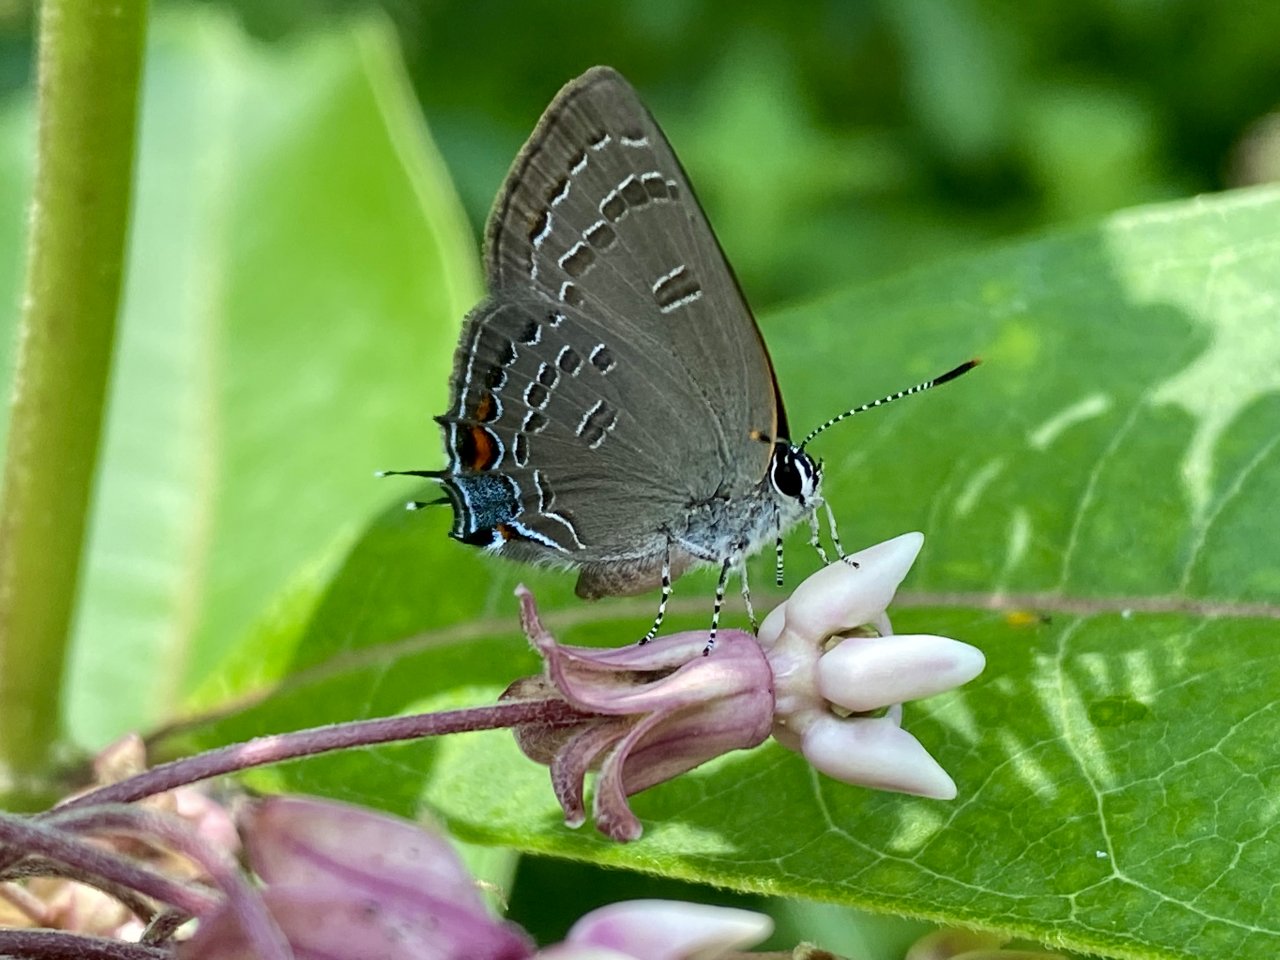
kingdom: Animalia
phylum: Arthropoda
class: Insecta
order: Lepidoptera
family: Lycaenidae
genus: Satyrium
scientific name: Satyrium calanus
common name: Banded Hairstreak
